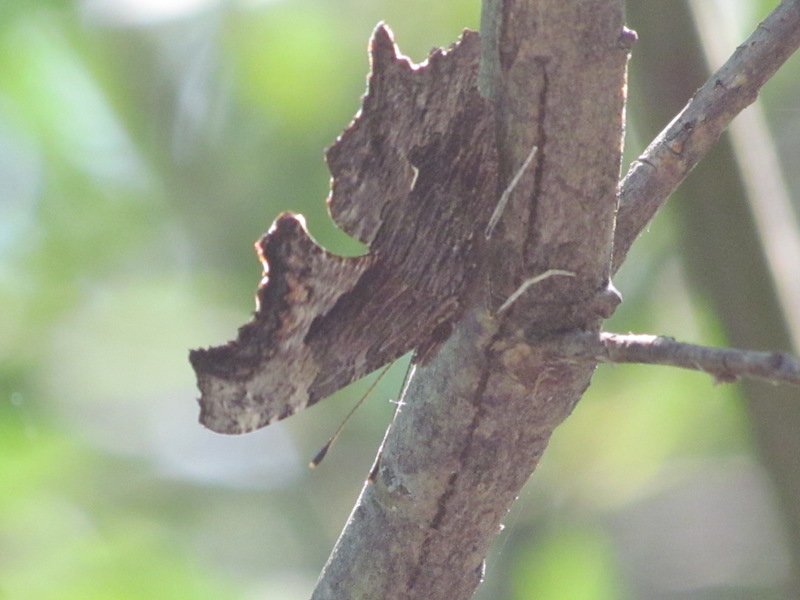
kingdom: Animalia
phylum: Arthropoda
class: Insecta
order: Lepidoptera
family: Nymphalidae
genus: Polygonia
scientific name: Polygonia progne
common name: Gray Comma
